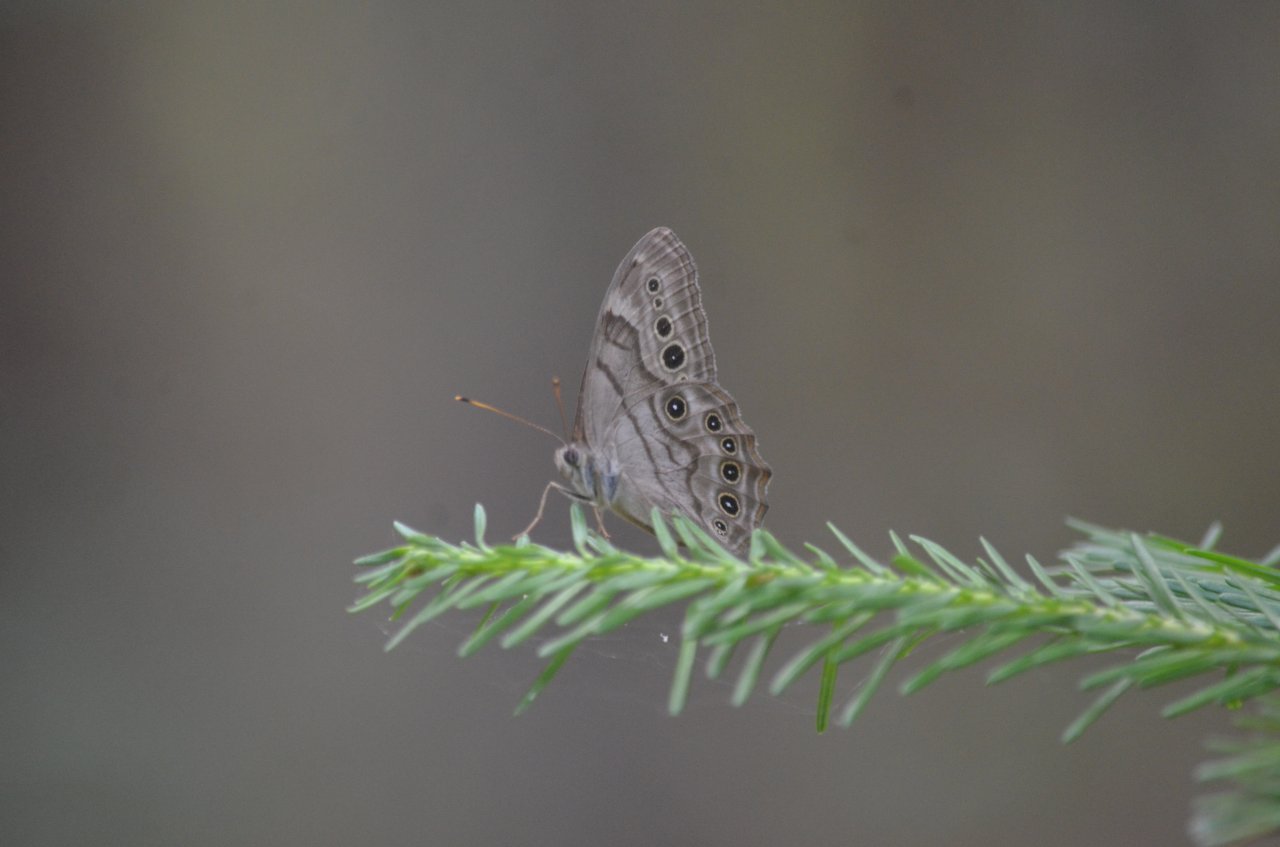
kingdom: Animalia
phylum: Arthropoda
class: Insecta
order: Lepidoptera
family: Nymphalidae
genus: Lethe
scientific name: Lethe anthedon
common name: Northern Pearly-Eye
